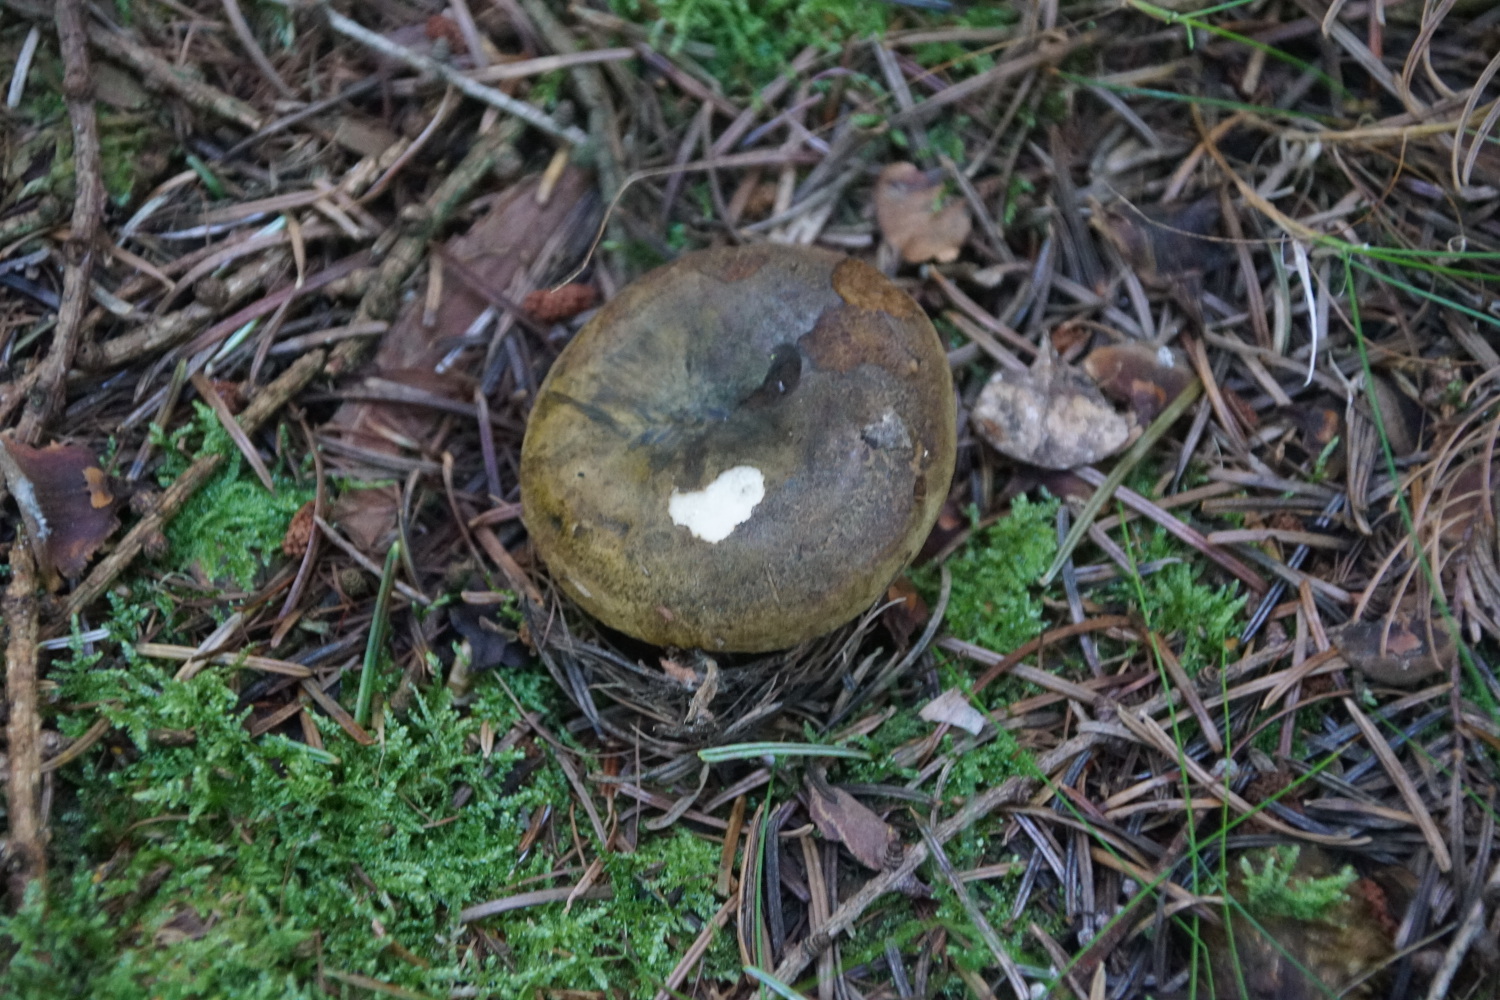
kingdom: Fungi
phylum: Basidiomycota
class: Agaricomycetes
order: Russulales
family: Russulaceae
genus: Lactarius
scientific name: Lactarius necator
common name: manddraber-mælkehat
